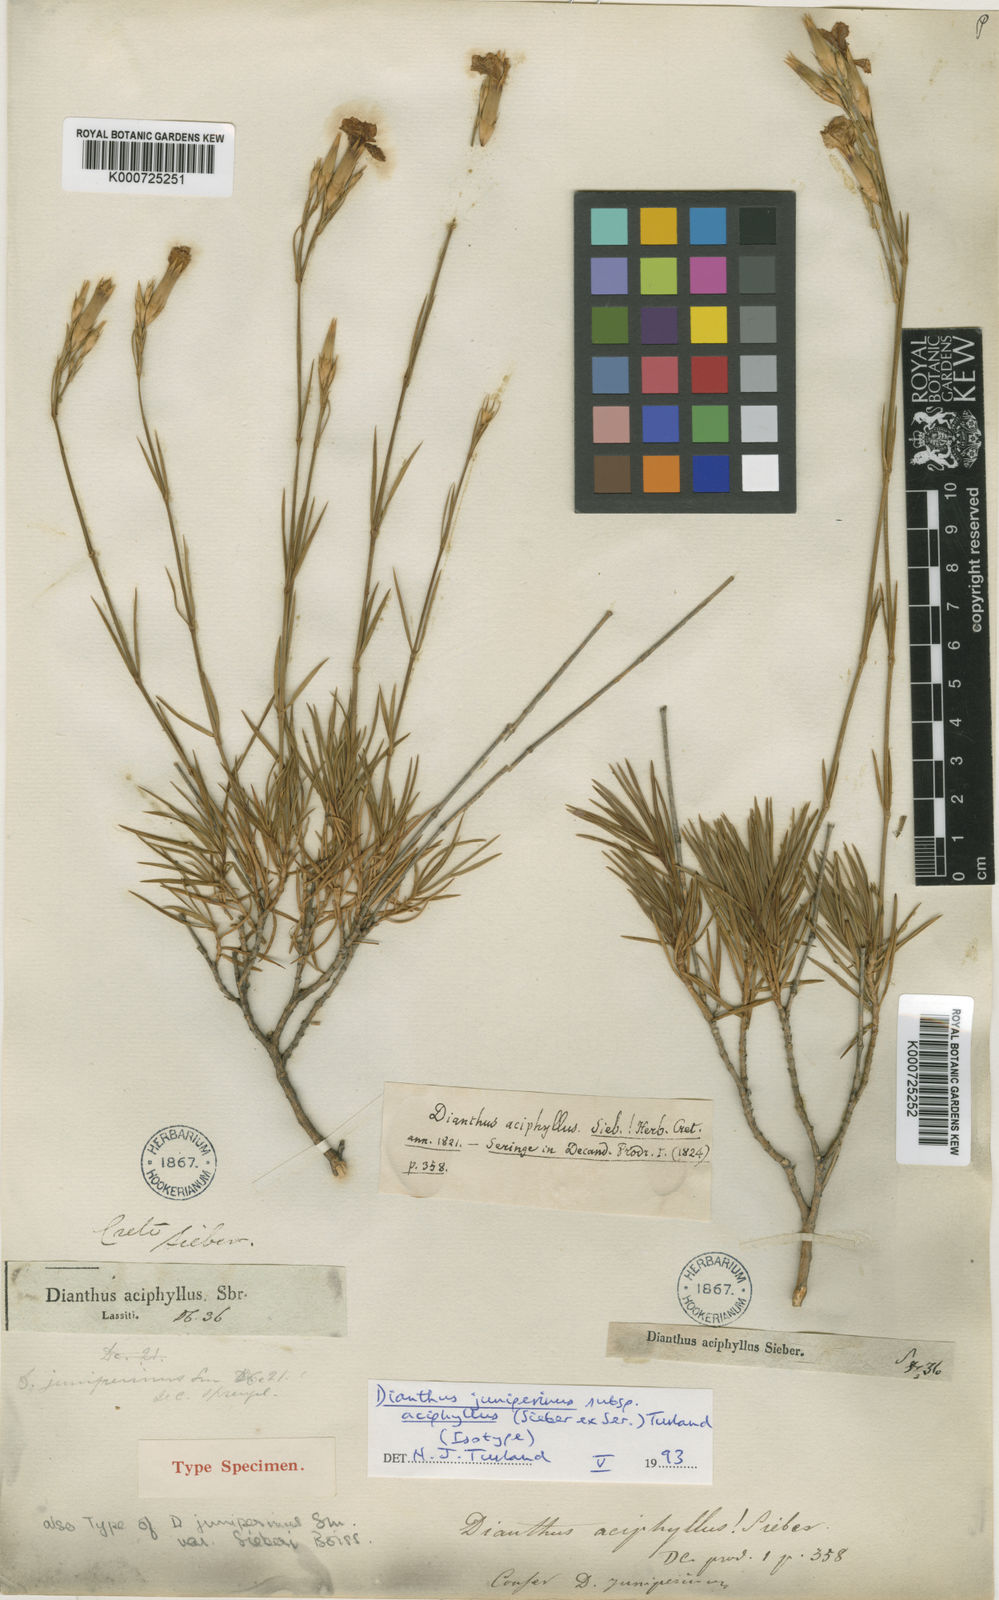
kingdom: Plantae
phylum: Tracheophyta
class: Magnoliopsida
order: Caryophyllales
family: Caryophyllaceae
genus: Dianthus
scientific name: Dianthus juniperinus
